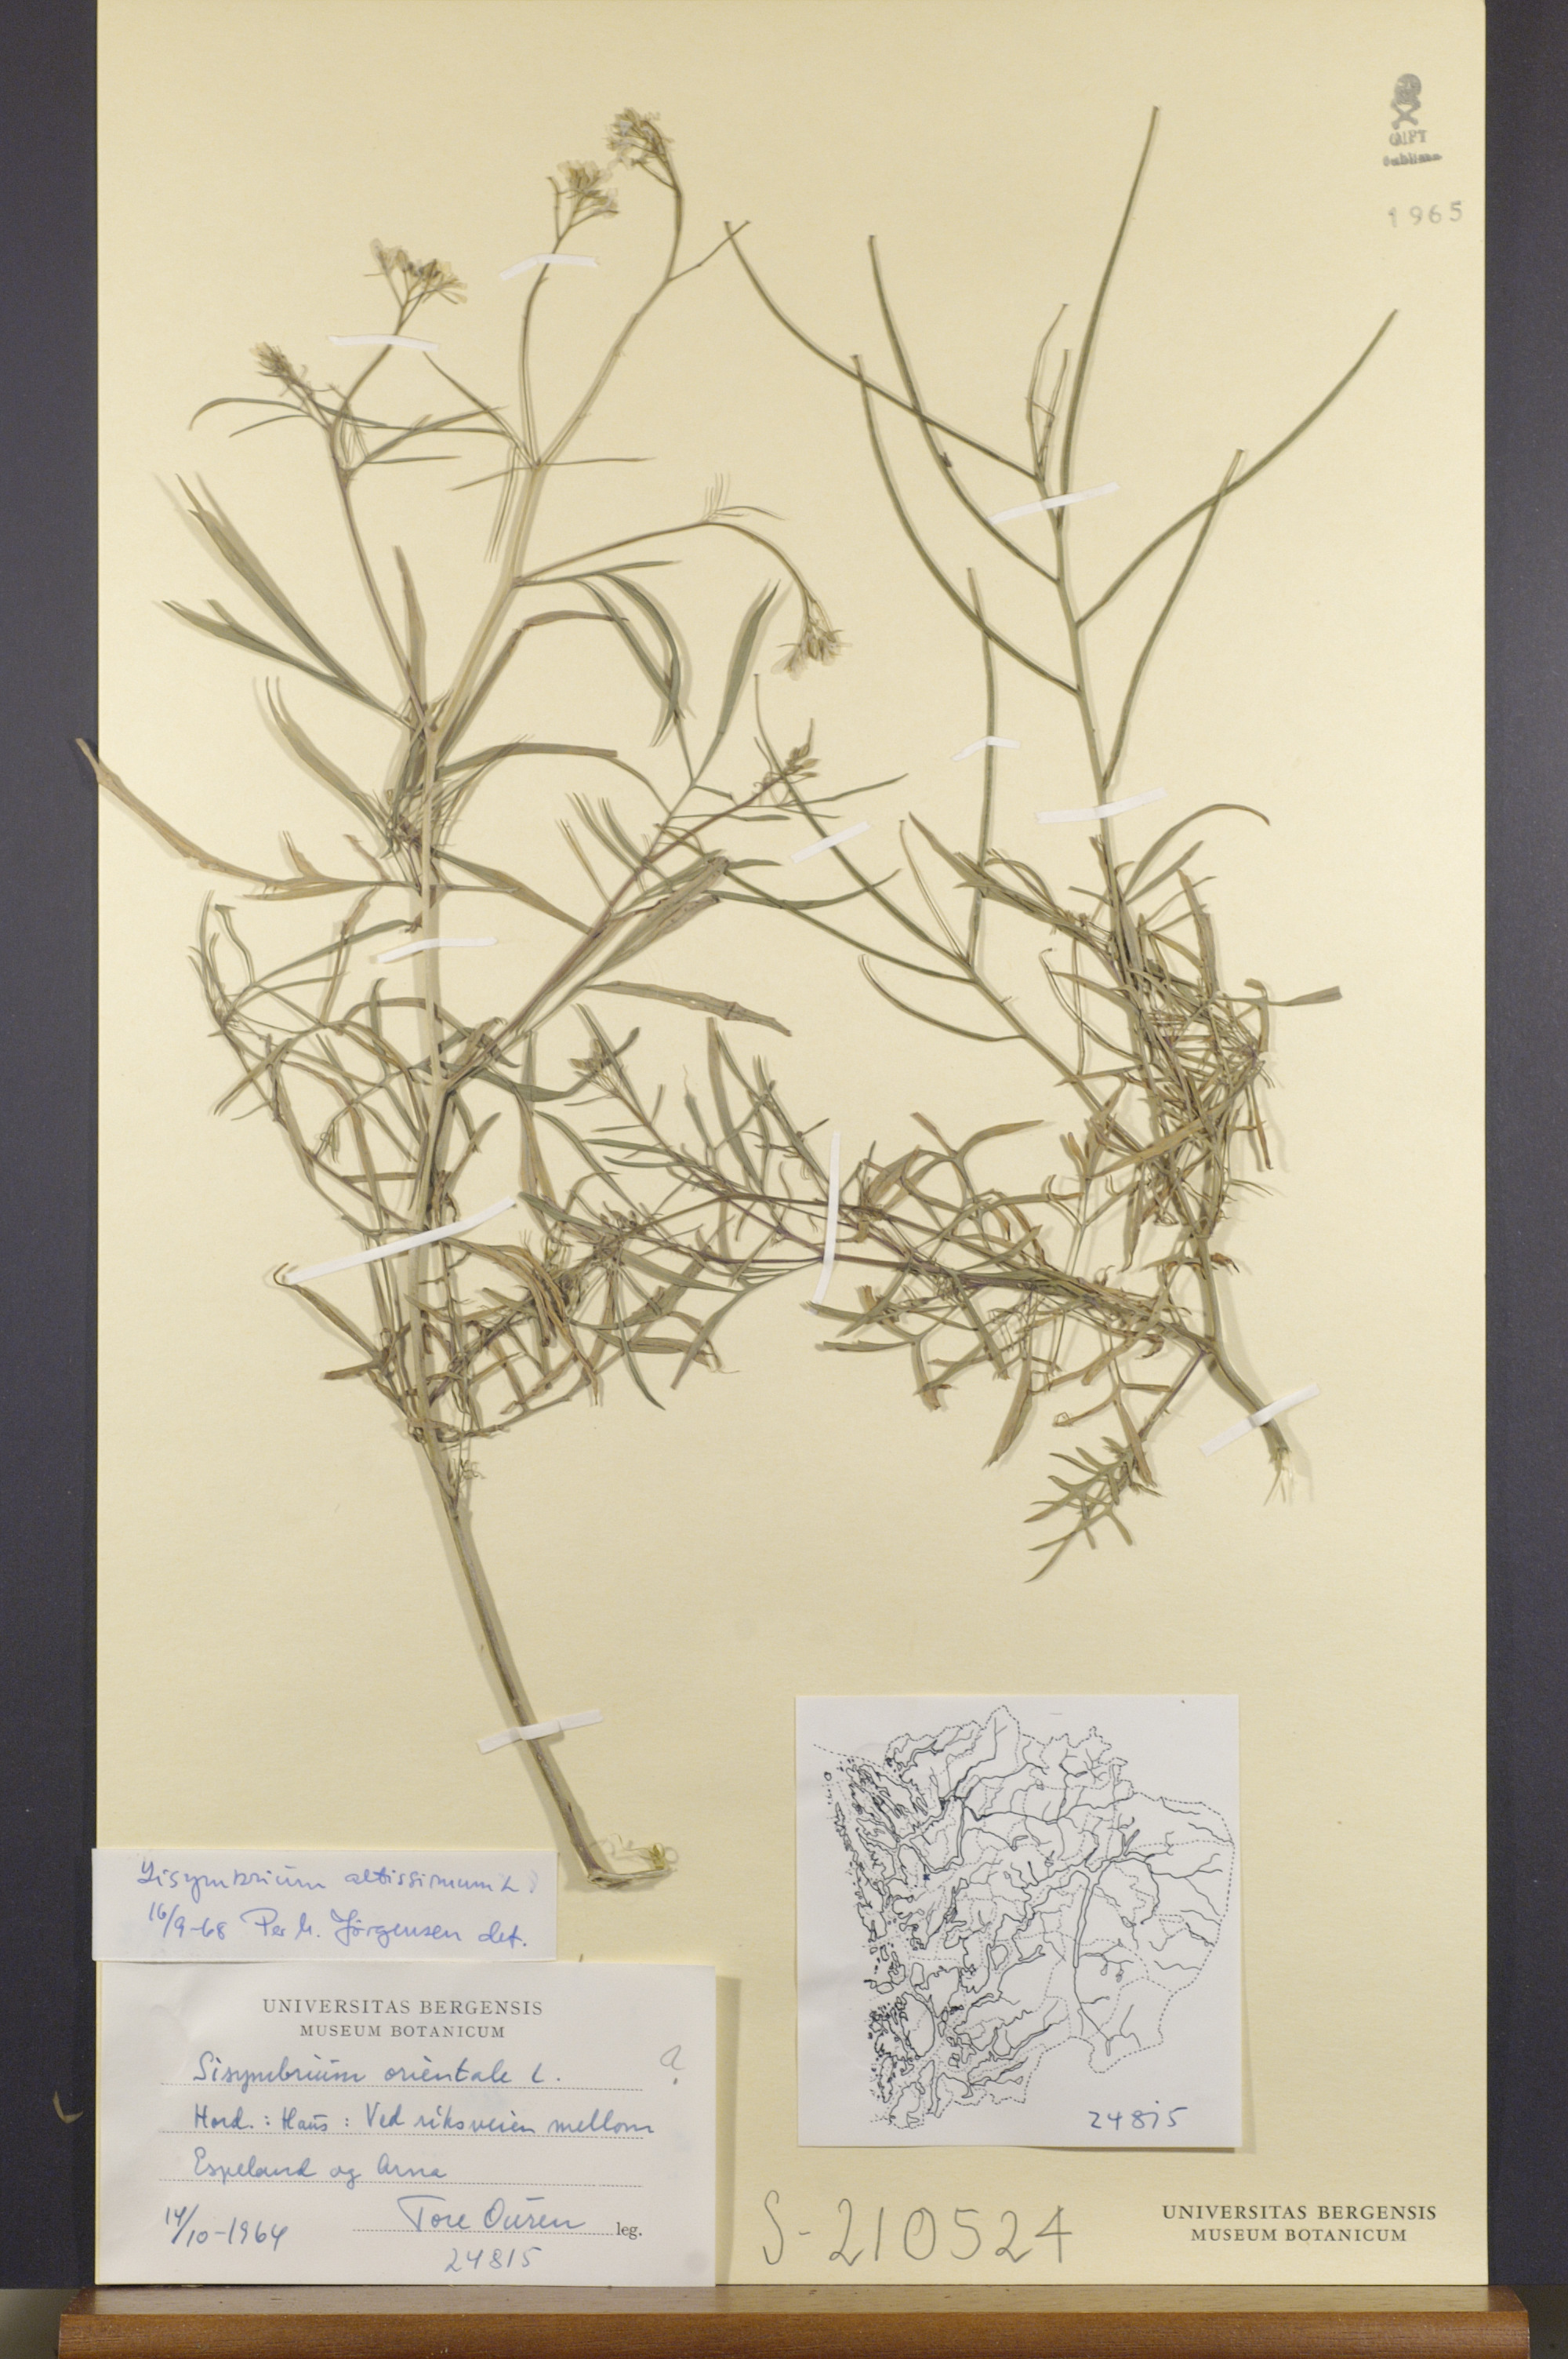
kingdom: Plantae
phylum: Tracheophyta
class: Magnoliopsida
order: Brassicales
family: Brassicaceae
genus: Sisymbrium
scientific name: Sisymbrium altissimum
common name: Tall rocket
